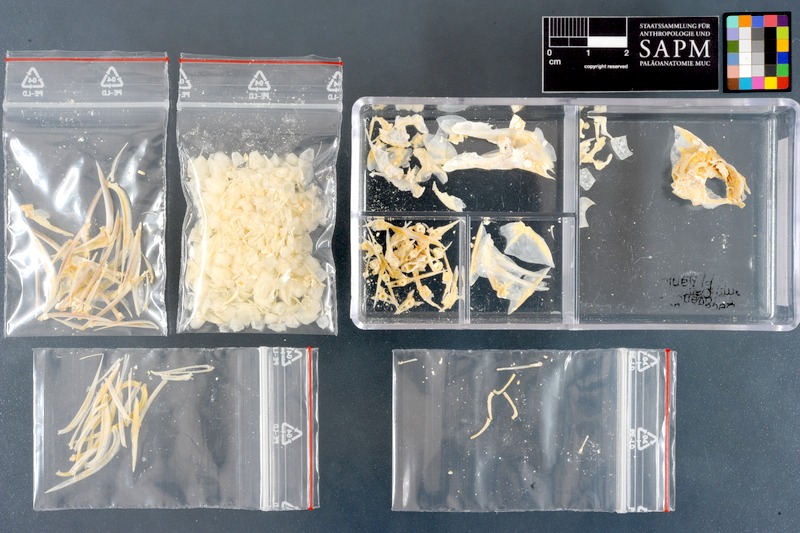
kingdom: Animalia
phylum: Chordata
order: Perciformes
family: Pomacentridae
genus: Dascyllus
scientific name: Dascyllus trimaculatus
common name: Threespot dascyllus
